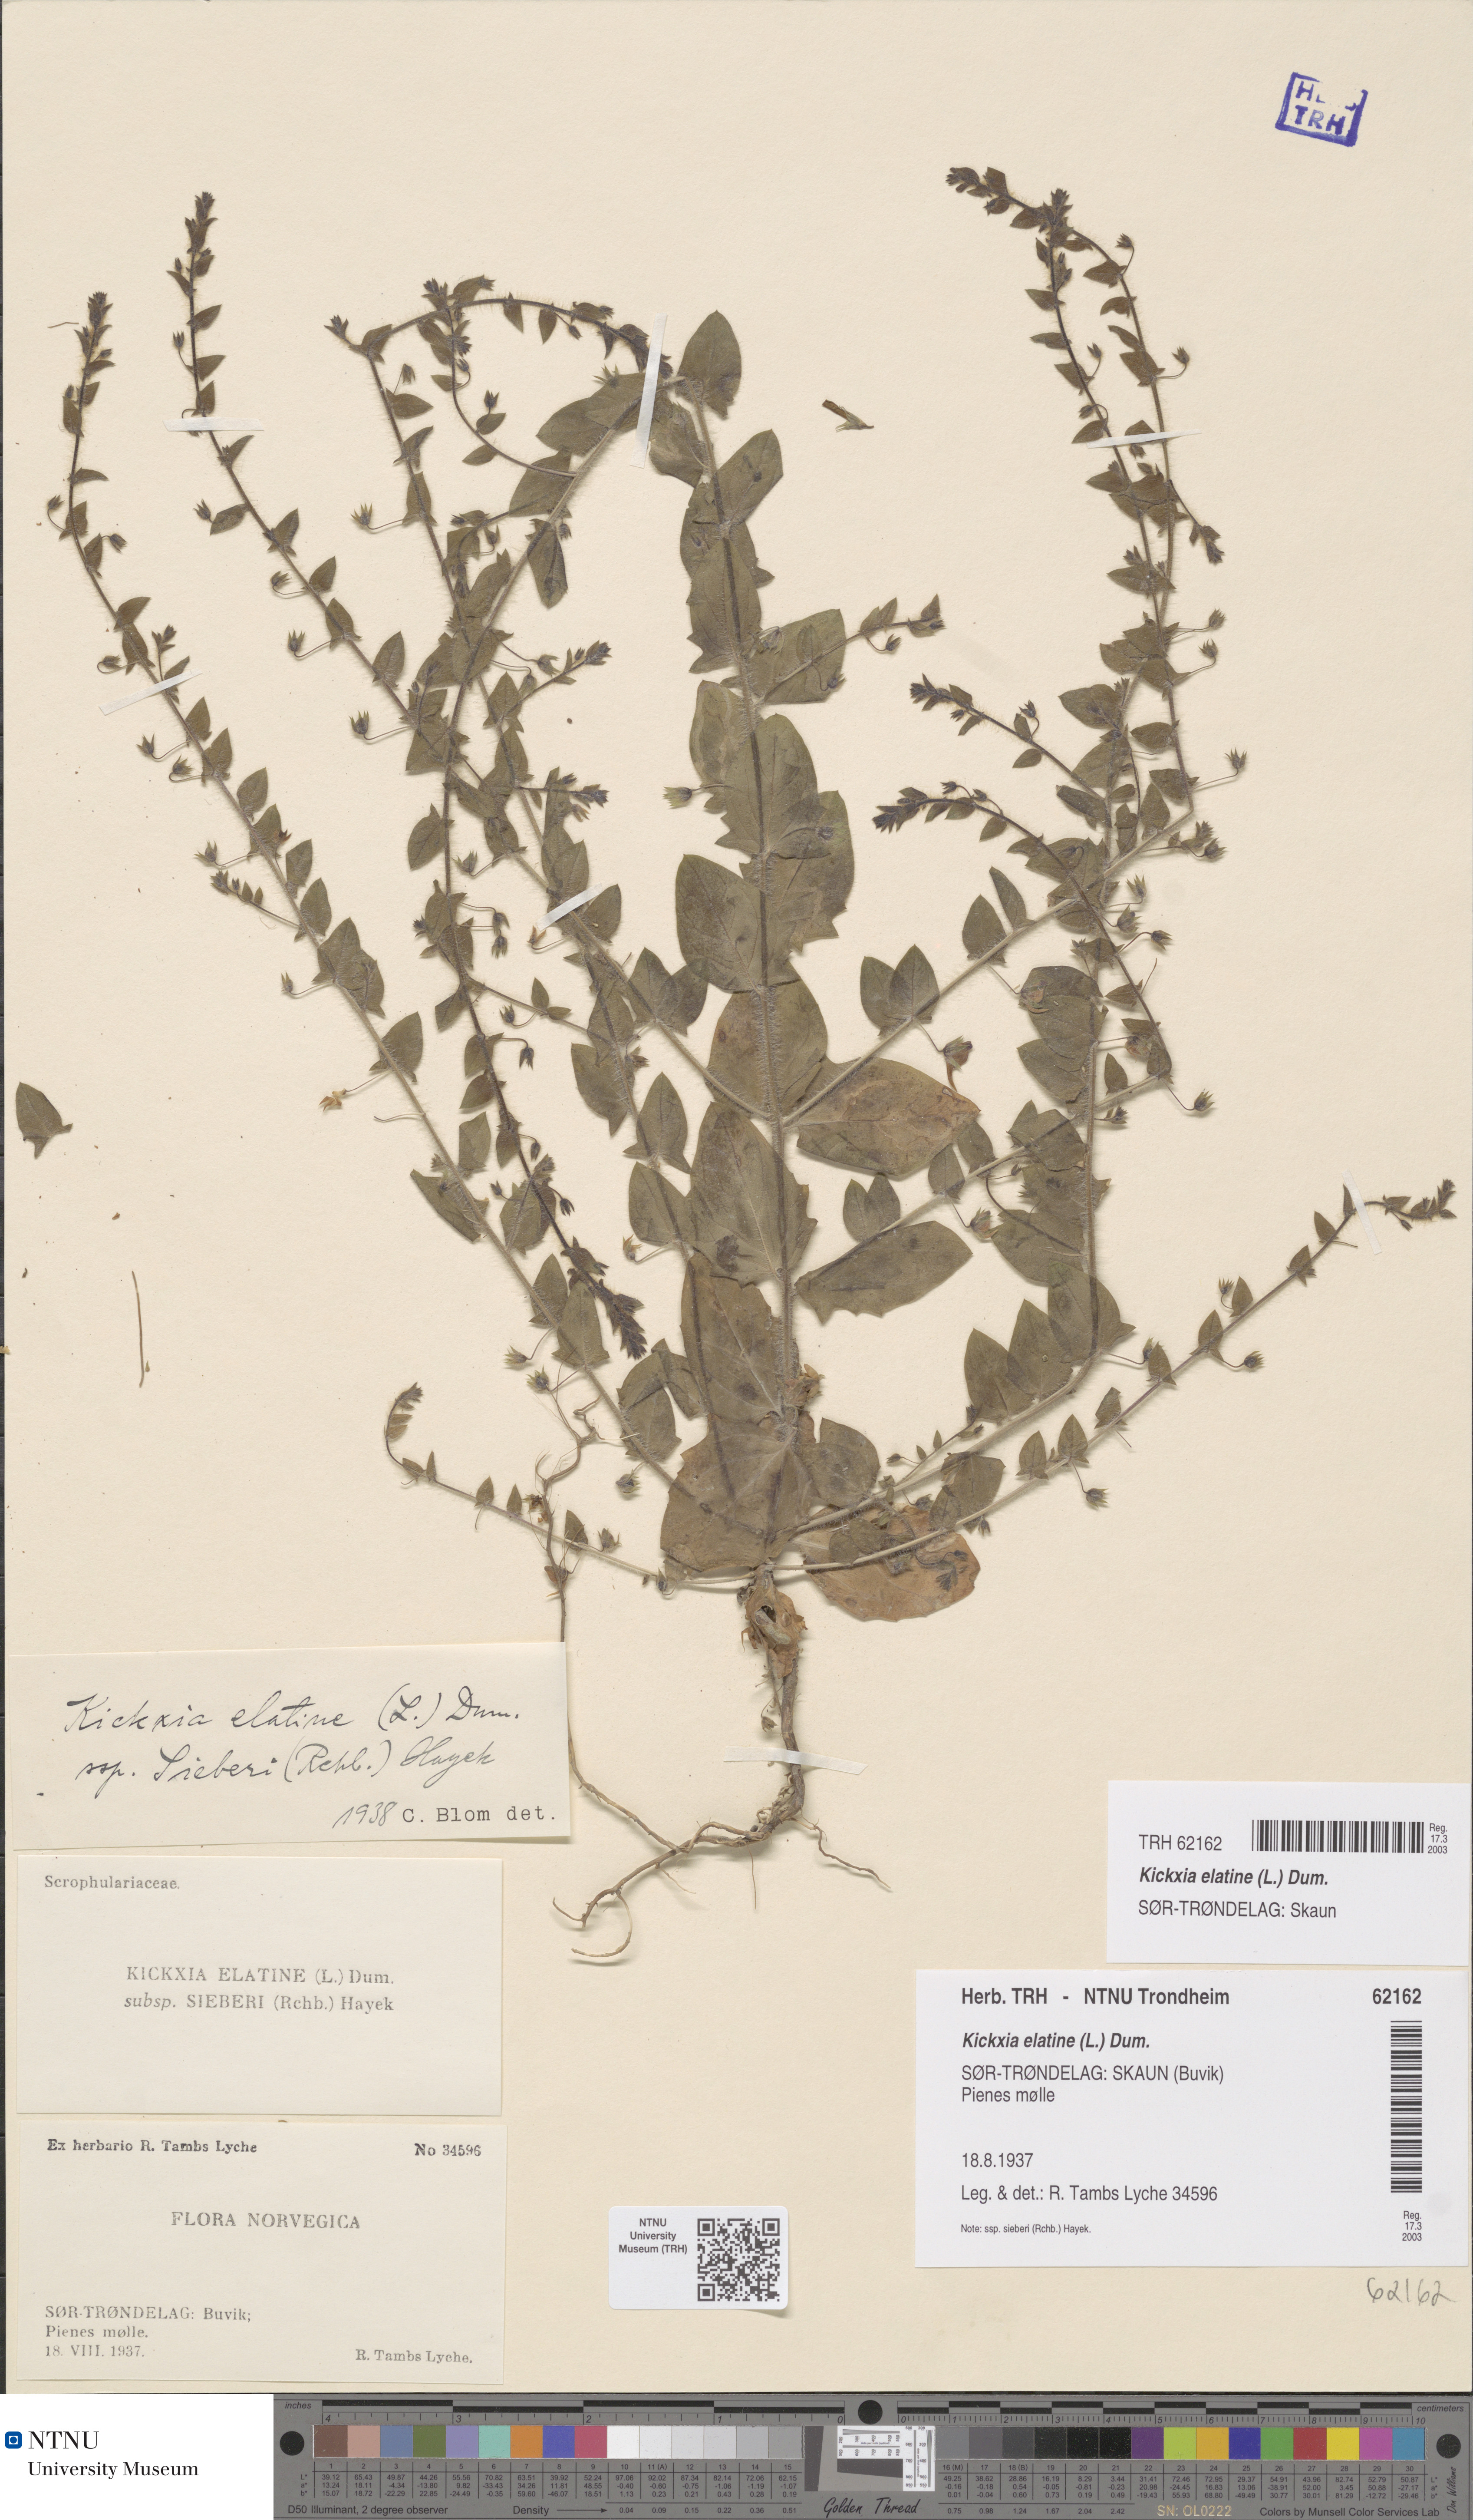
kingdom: Plantae
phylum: Tracheophyta
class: Magnoliopsida
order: Lamiales
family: Plantaginaceae
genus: Kickxia
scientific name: Kickxia elatine
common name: Sharp-leaved fluellen
